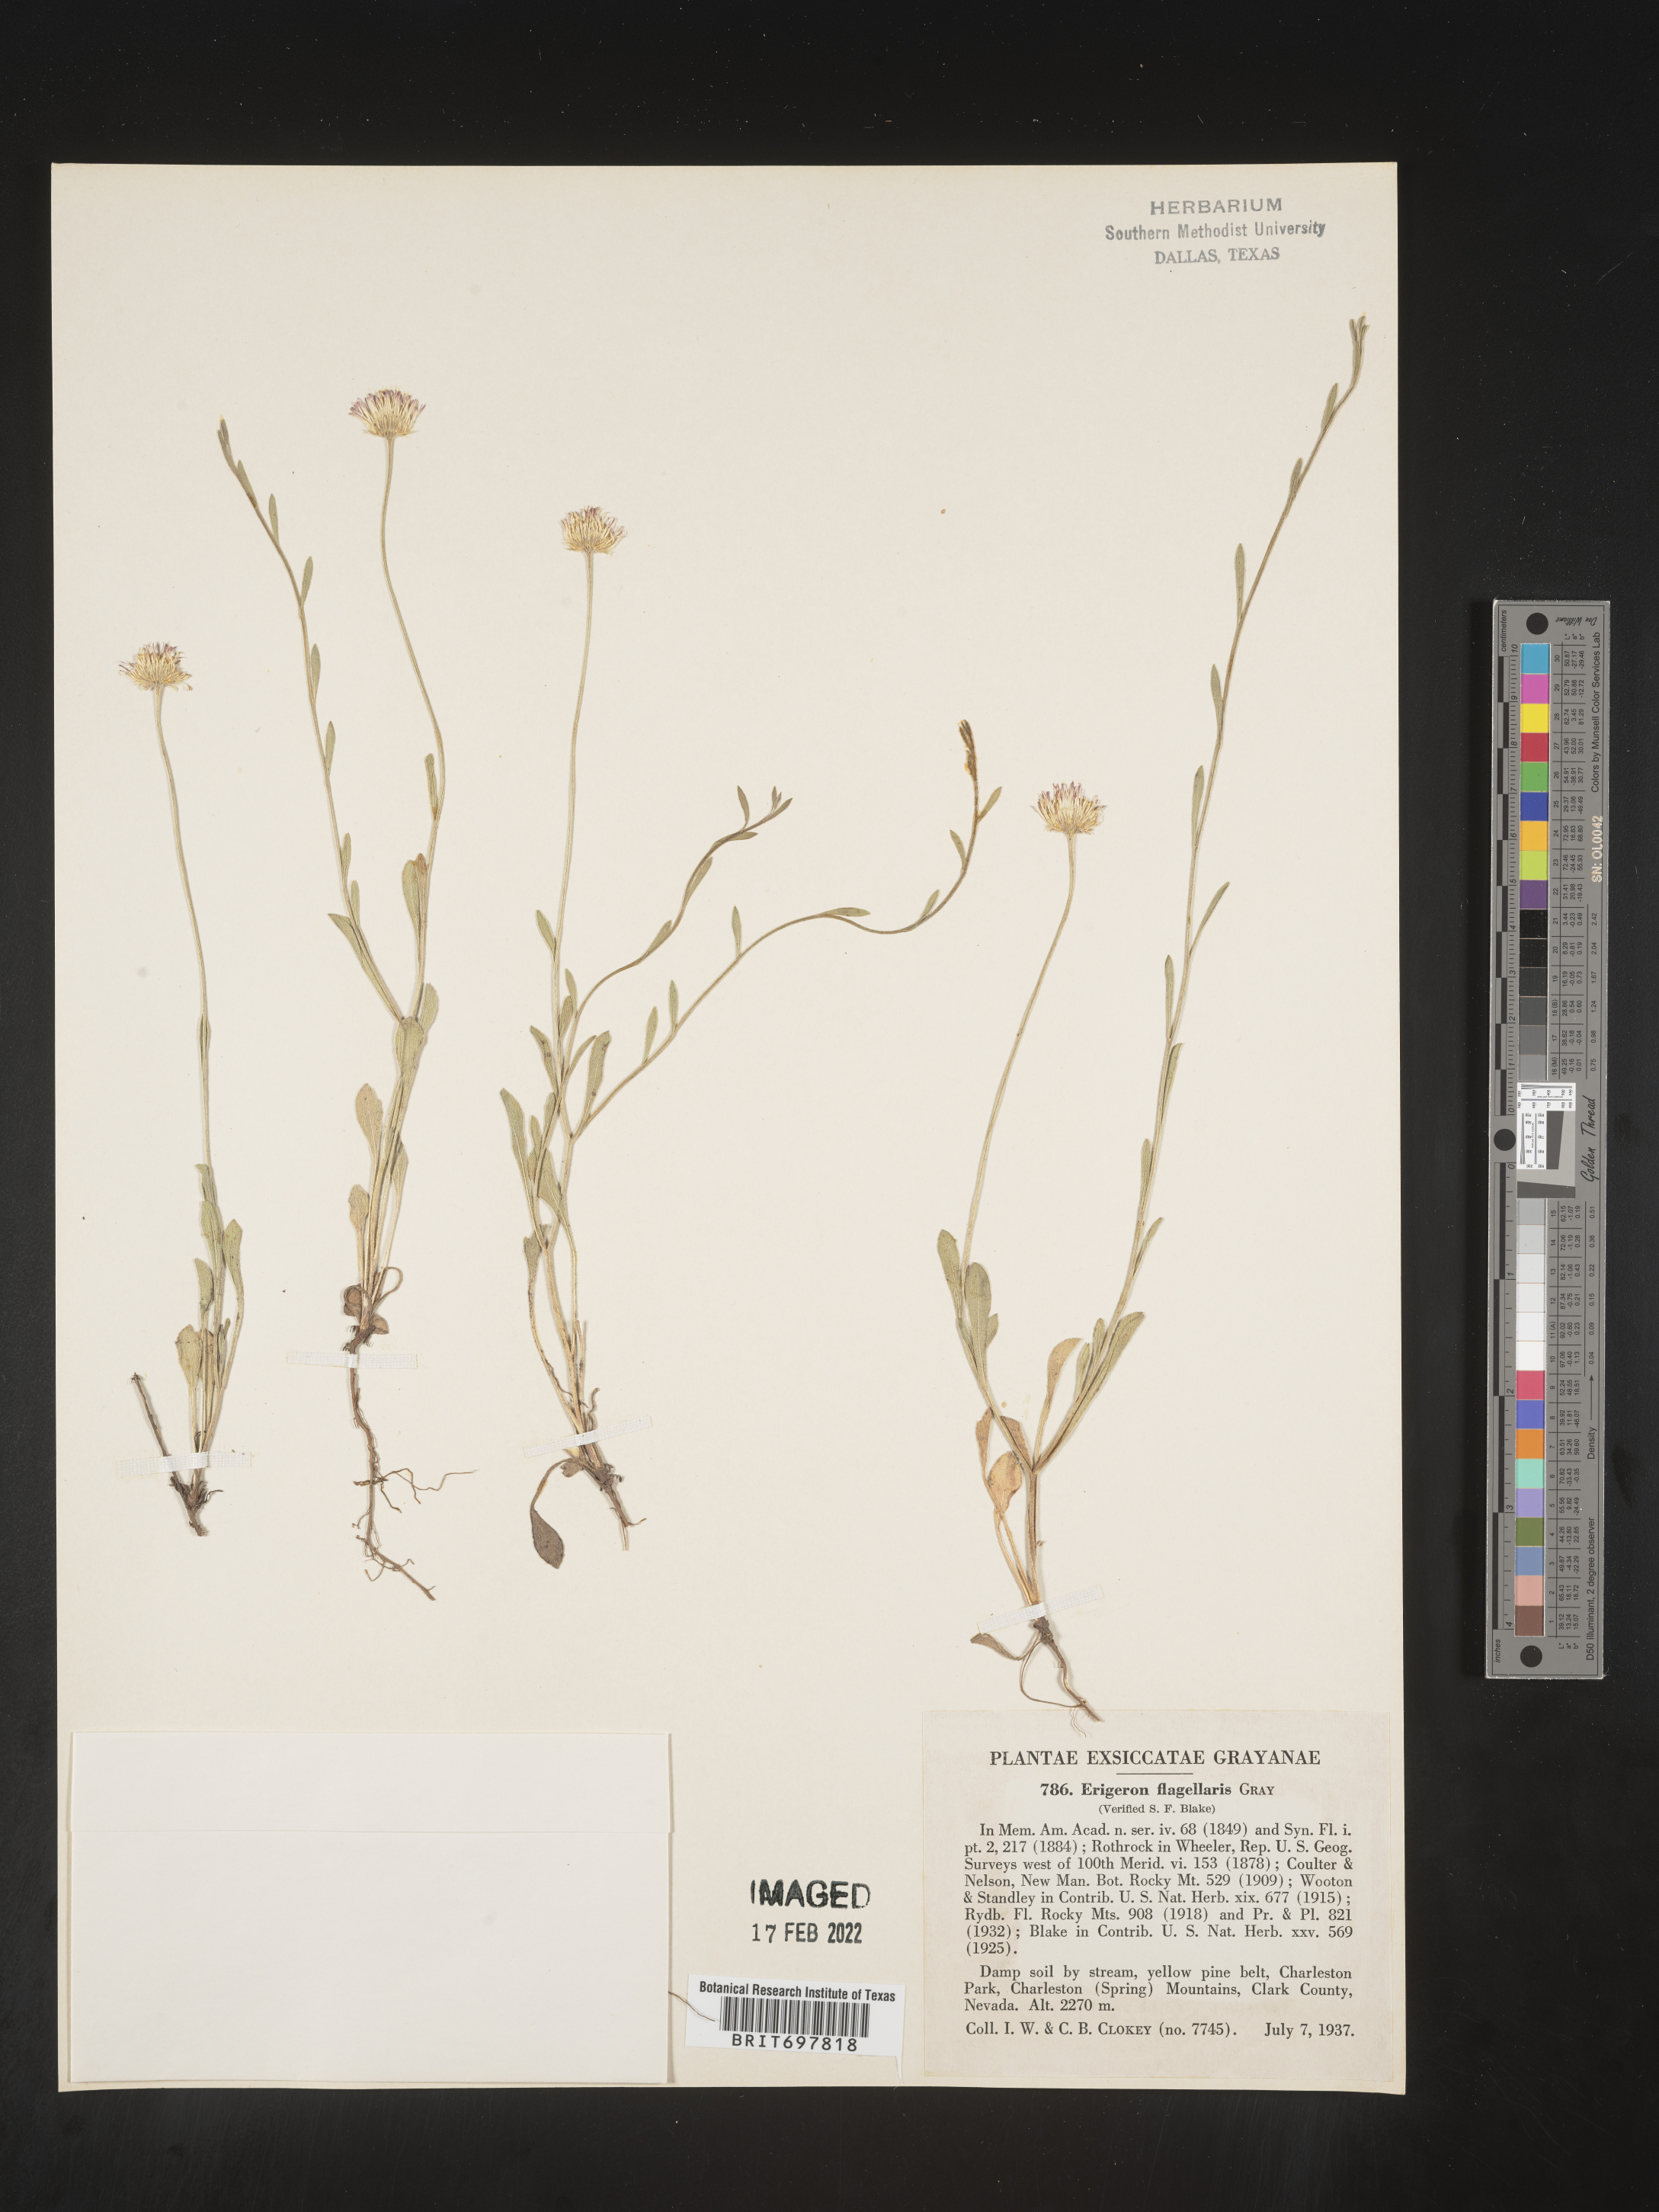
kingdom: Plantae
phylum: Tracheophyta
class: Magnoliopsida
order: Asterales
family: Asteraceae
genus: Erigeron
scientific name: Erigeron flagellaris
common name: Running fleabane
